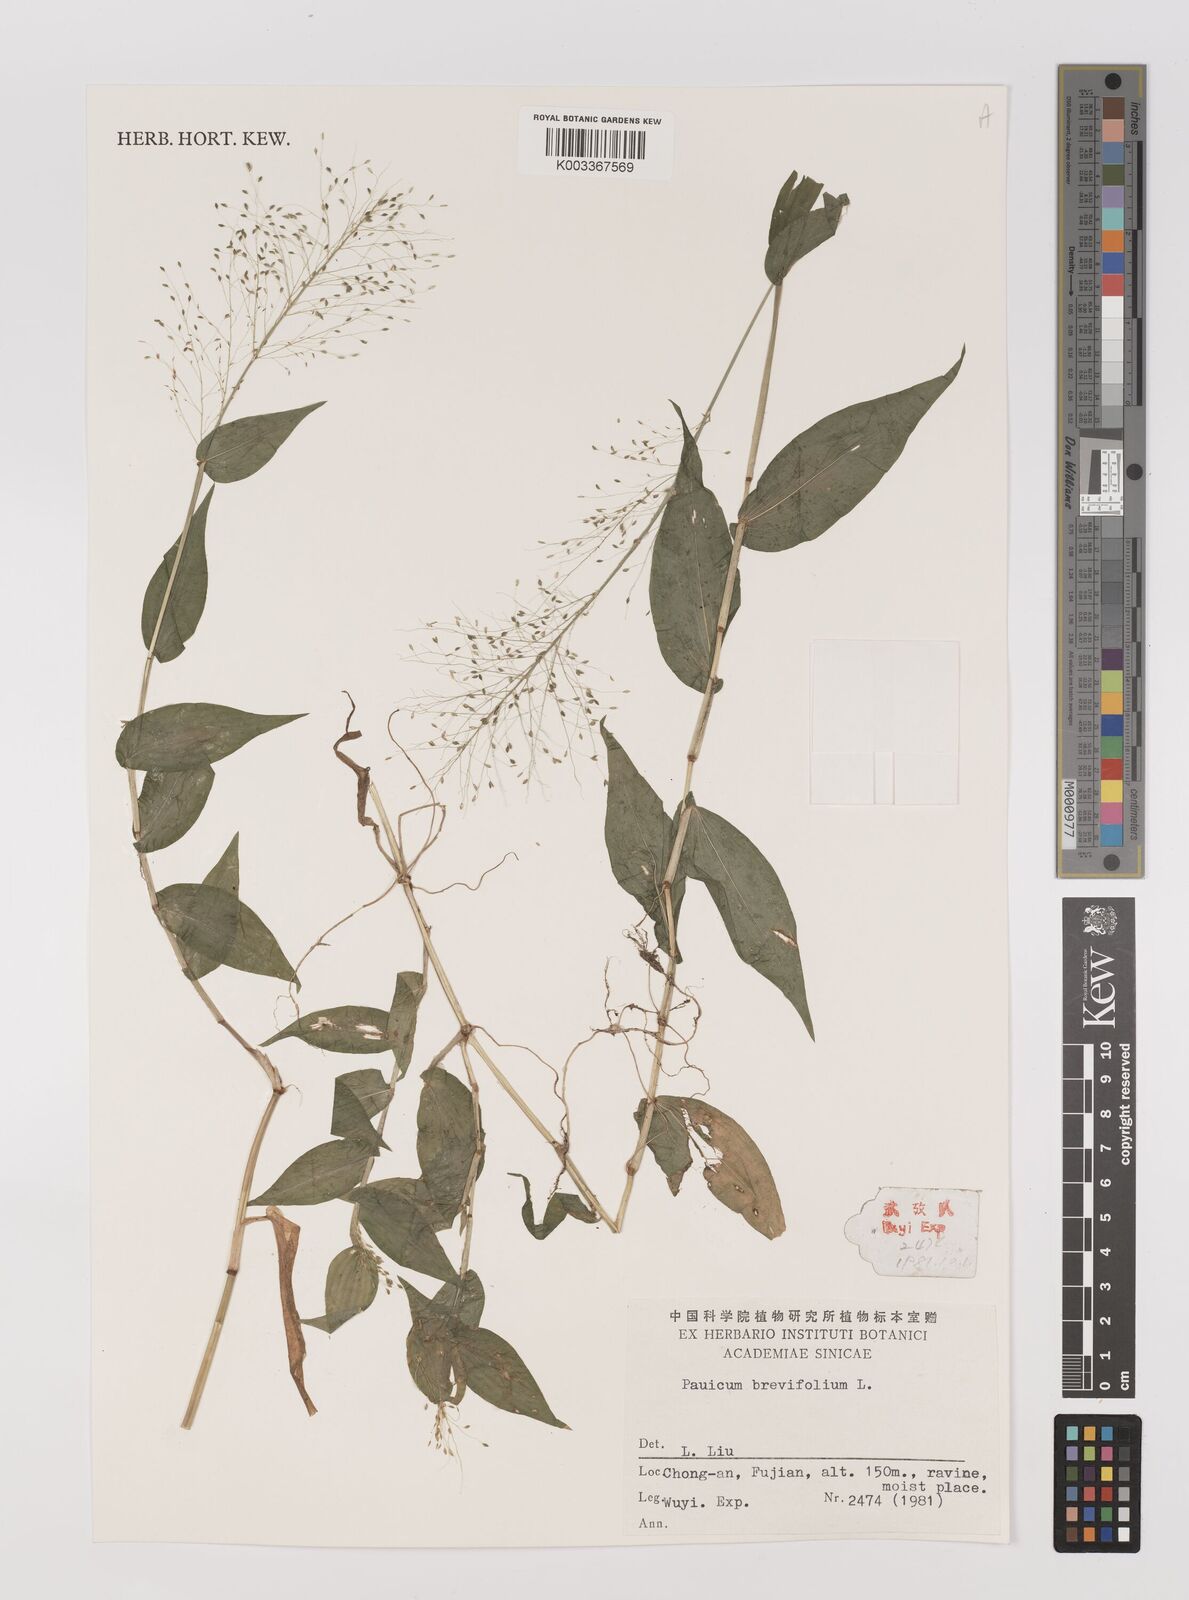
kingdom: Plantae
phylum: Tracheophyta
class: Liliopsida
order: Poales
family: Poaceae
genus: Panicum
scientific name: Panicum brevifolium
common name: Shortleaf panic grass
